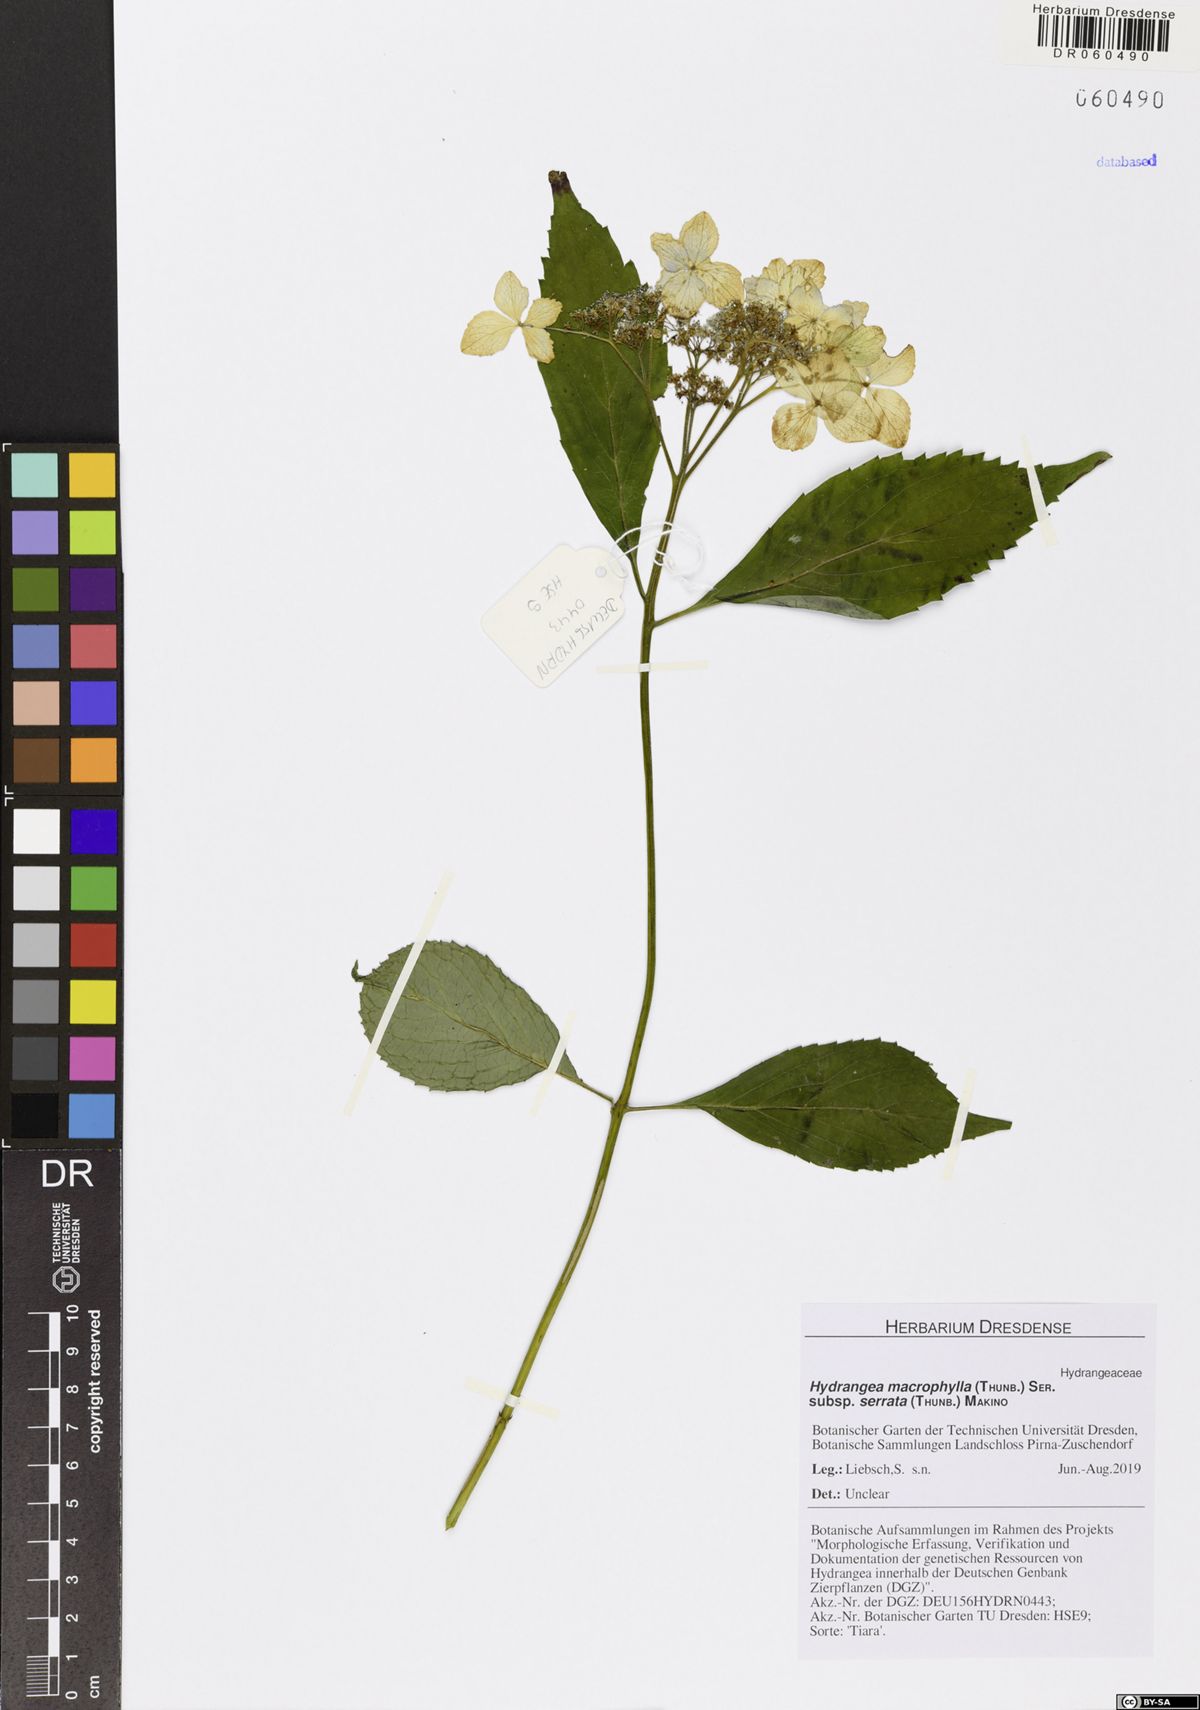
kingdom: Plantae
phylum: Tracheophyta
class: Magnoliopsida
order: Cornales
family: Hydrangeaceae
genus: Hydrangea
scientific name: Hydrangea serrata
